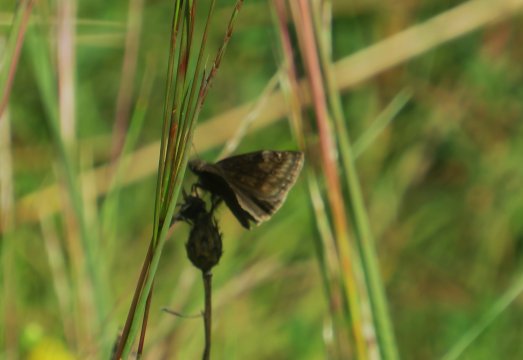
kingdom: Animalia
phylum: Arthropoda
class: Insecta
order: Lepidoptera
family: Hesperiidae
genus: Gesta
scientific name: Gesta
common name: Wild Indigo Duskywing
